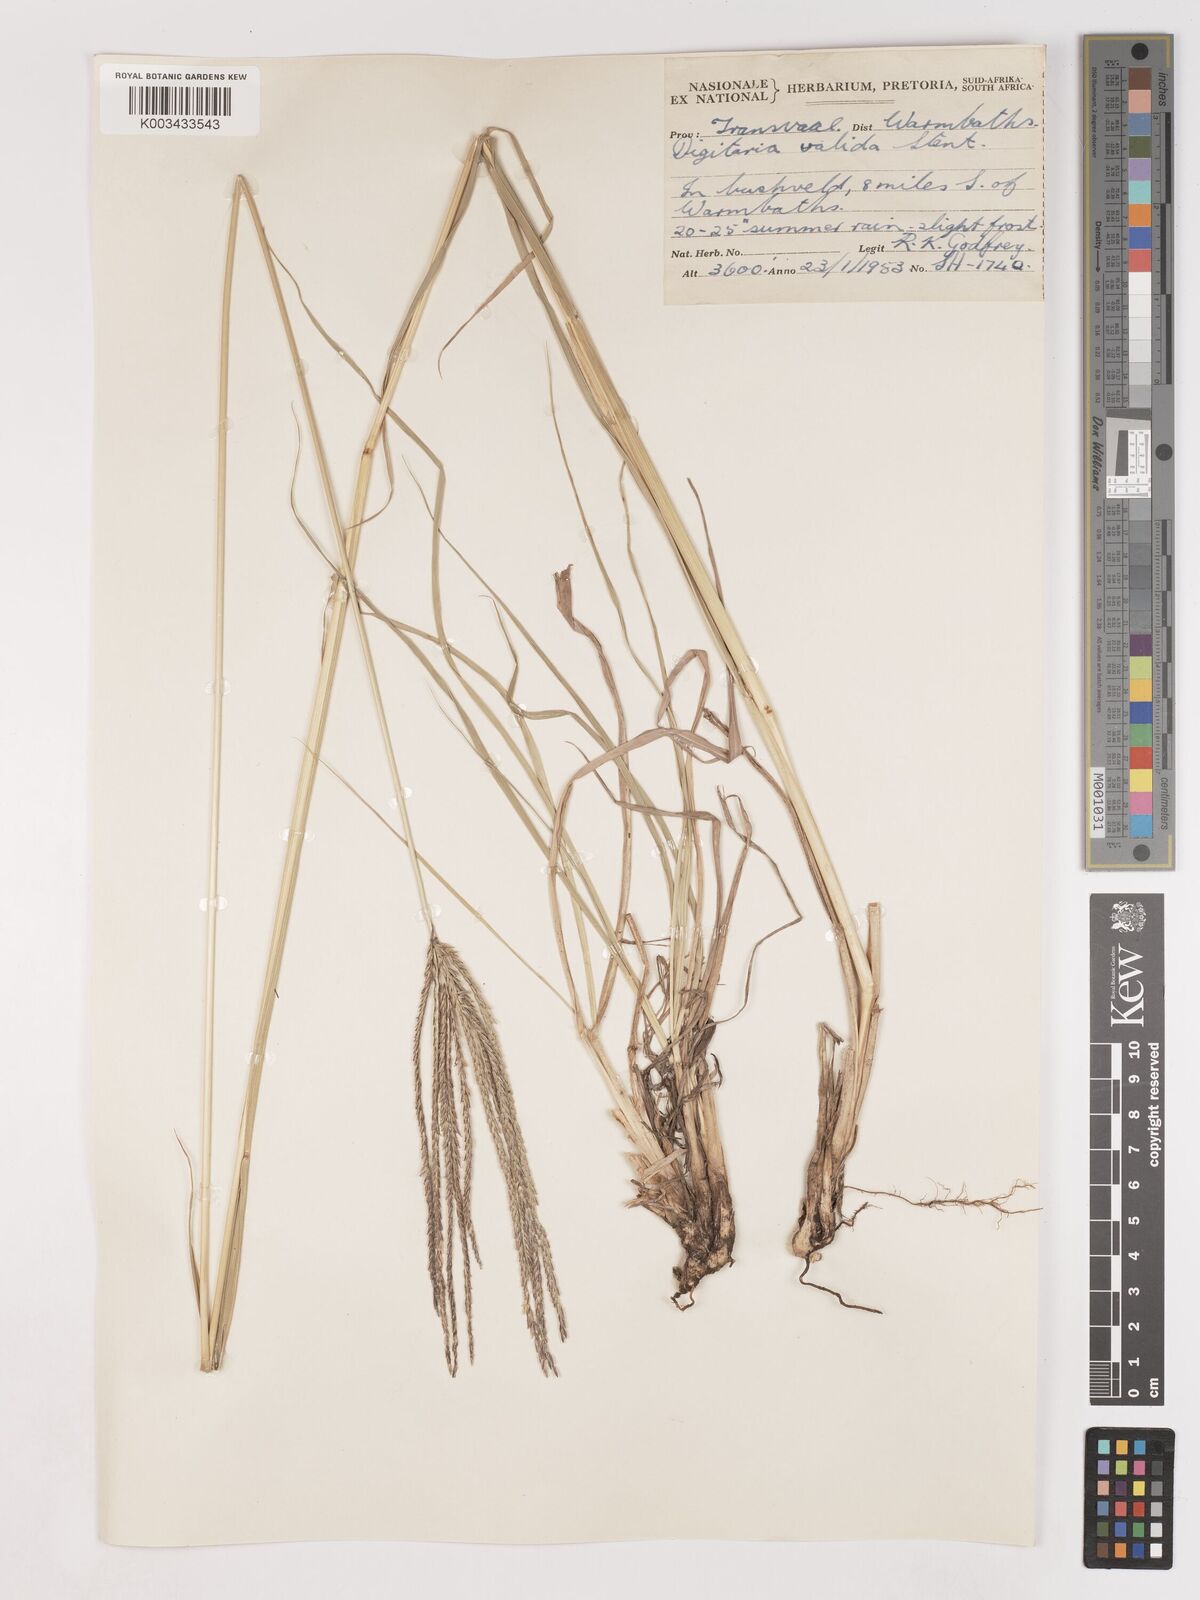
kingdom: Plantae
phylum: Tracheophyta
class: Liliopsida
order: Poales
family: Poaceae
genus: Digitaria
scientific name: Digitaria eriantha
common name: Digitgrass
